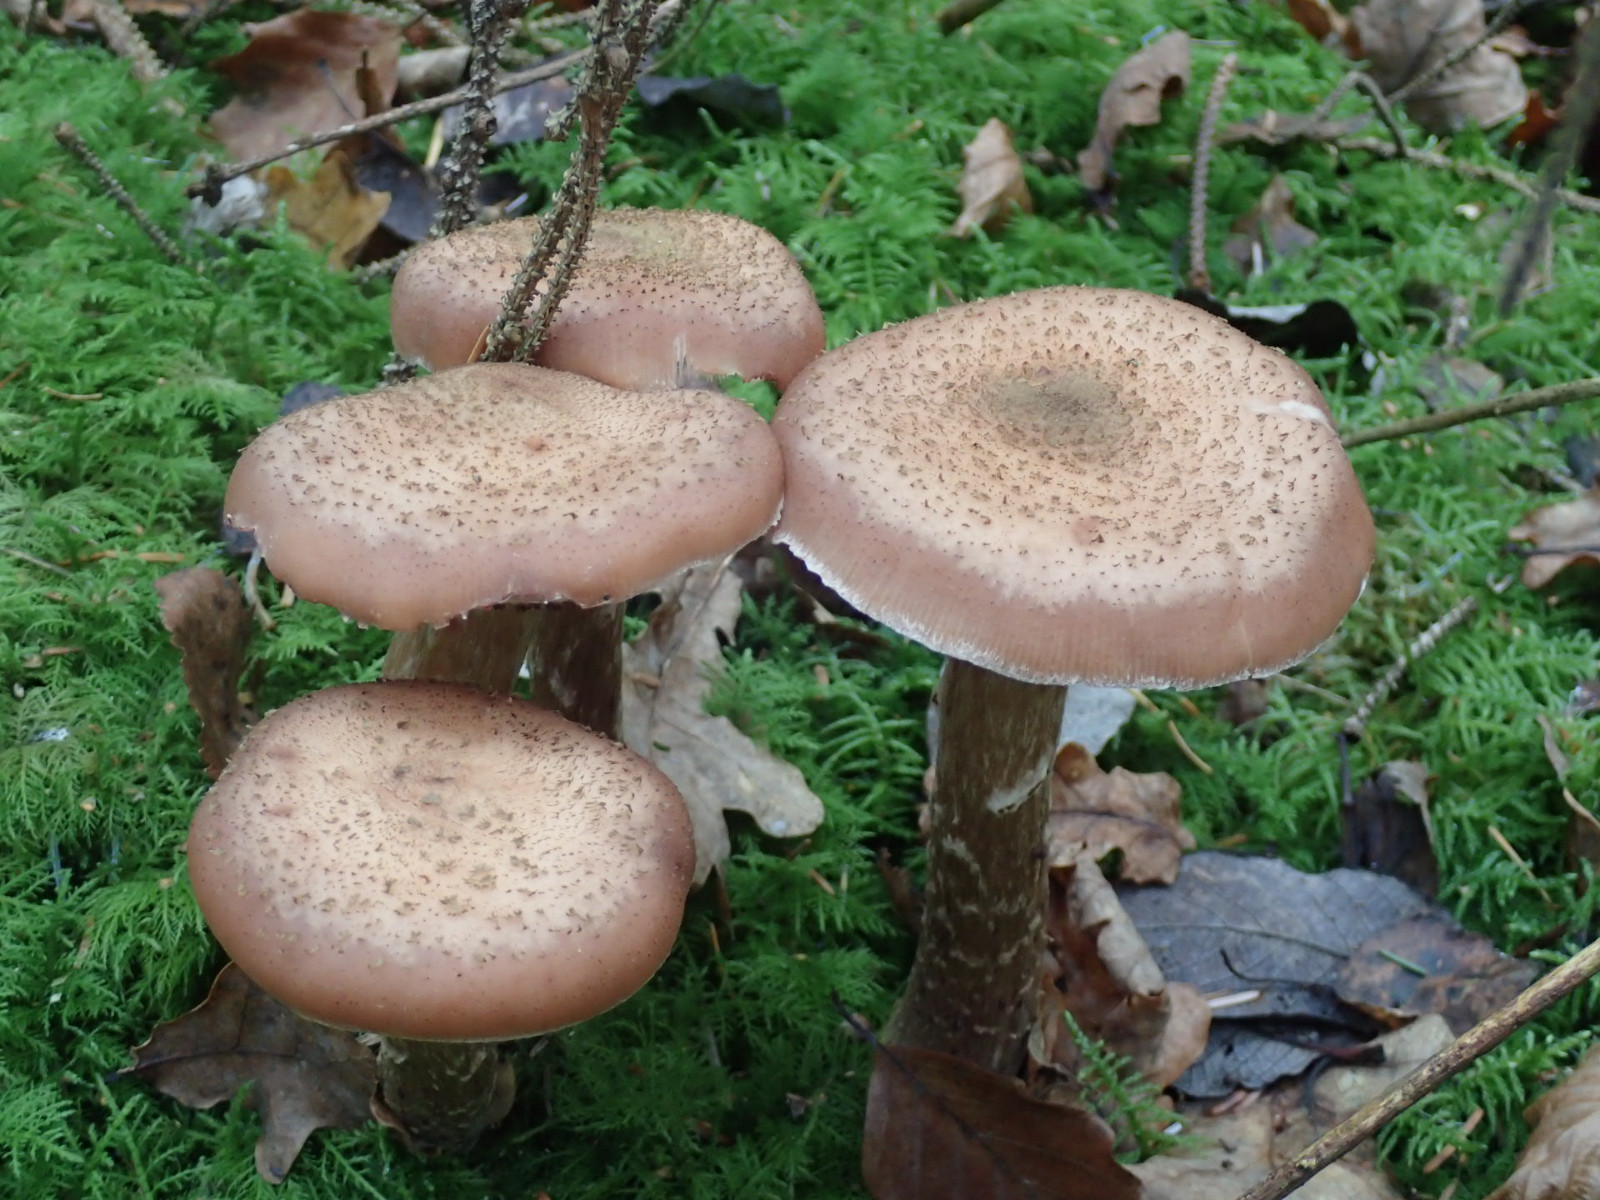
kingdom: Fungi
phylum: Basidiomycota
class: Agaricomycetes
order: Agaricales
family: Physalacriaceae
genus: Armillaria
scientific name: Armillaria ostoyae
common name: mørk honningsvamp
